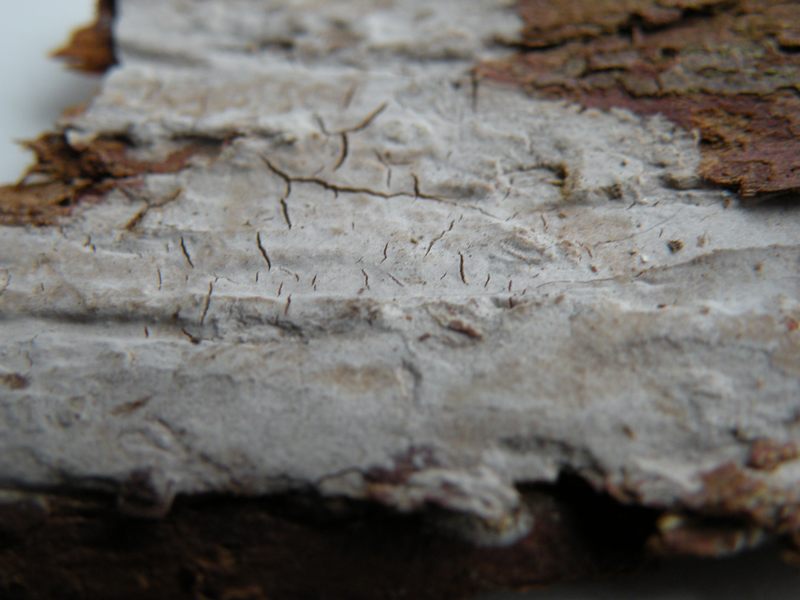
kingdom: Fungi
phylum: Basidiomycota
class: Agaricomycetes
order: Russulales
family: Echinodontiaceae
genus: Amylostereum
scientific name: Amylostereum laevigatum
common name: ene-lædersvamp
